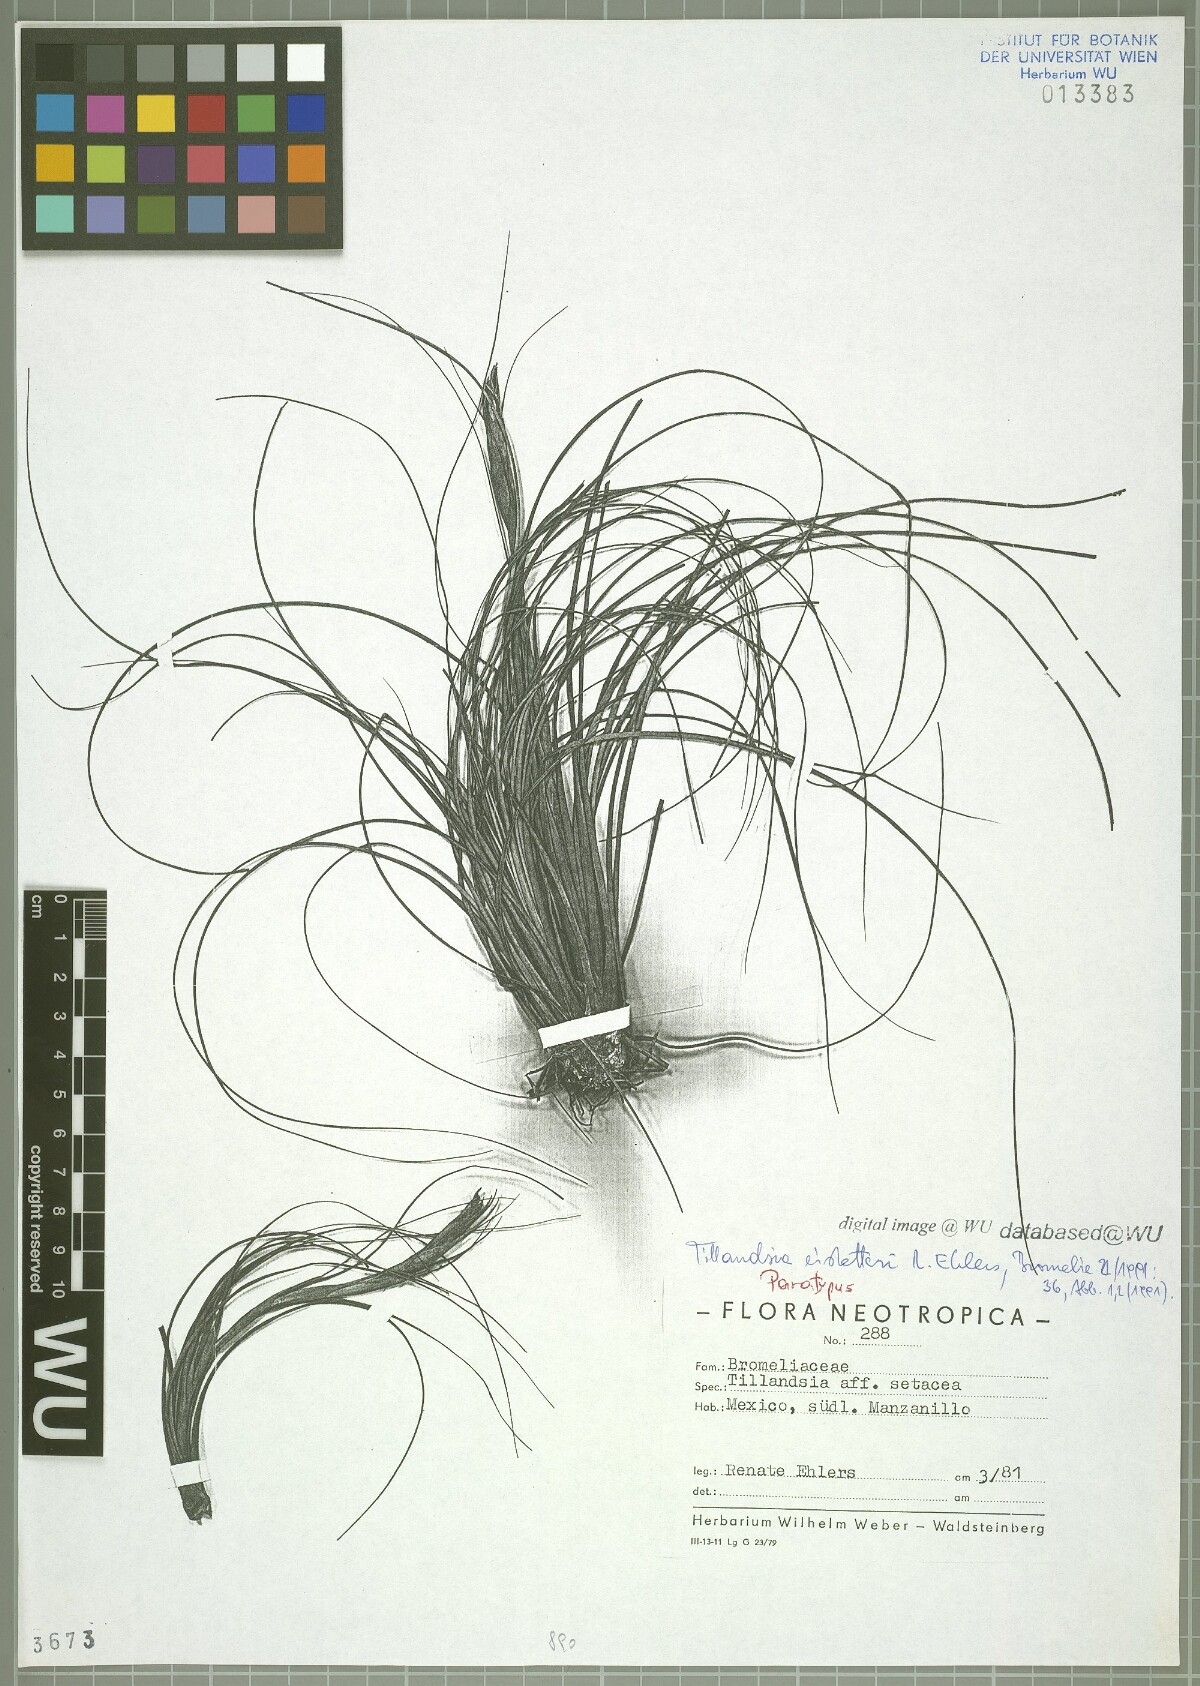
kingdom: Plantae
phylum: Tracheophyta
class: Liliopsida
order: Poales
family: Bromeliaceae
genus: Tillandsia
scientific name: Tillandsia eistetteri
